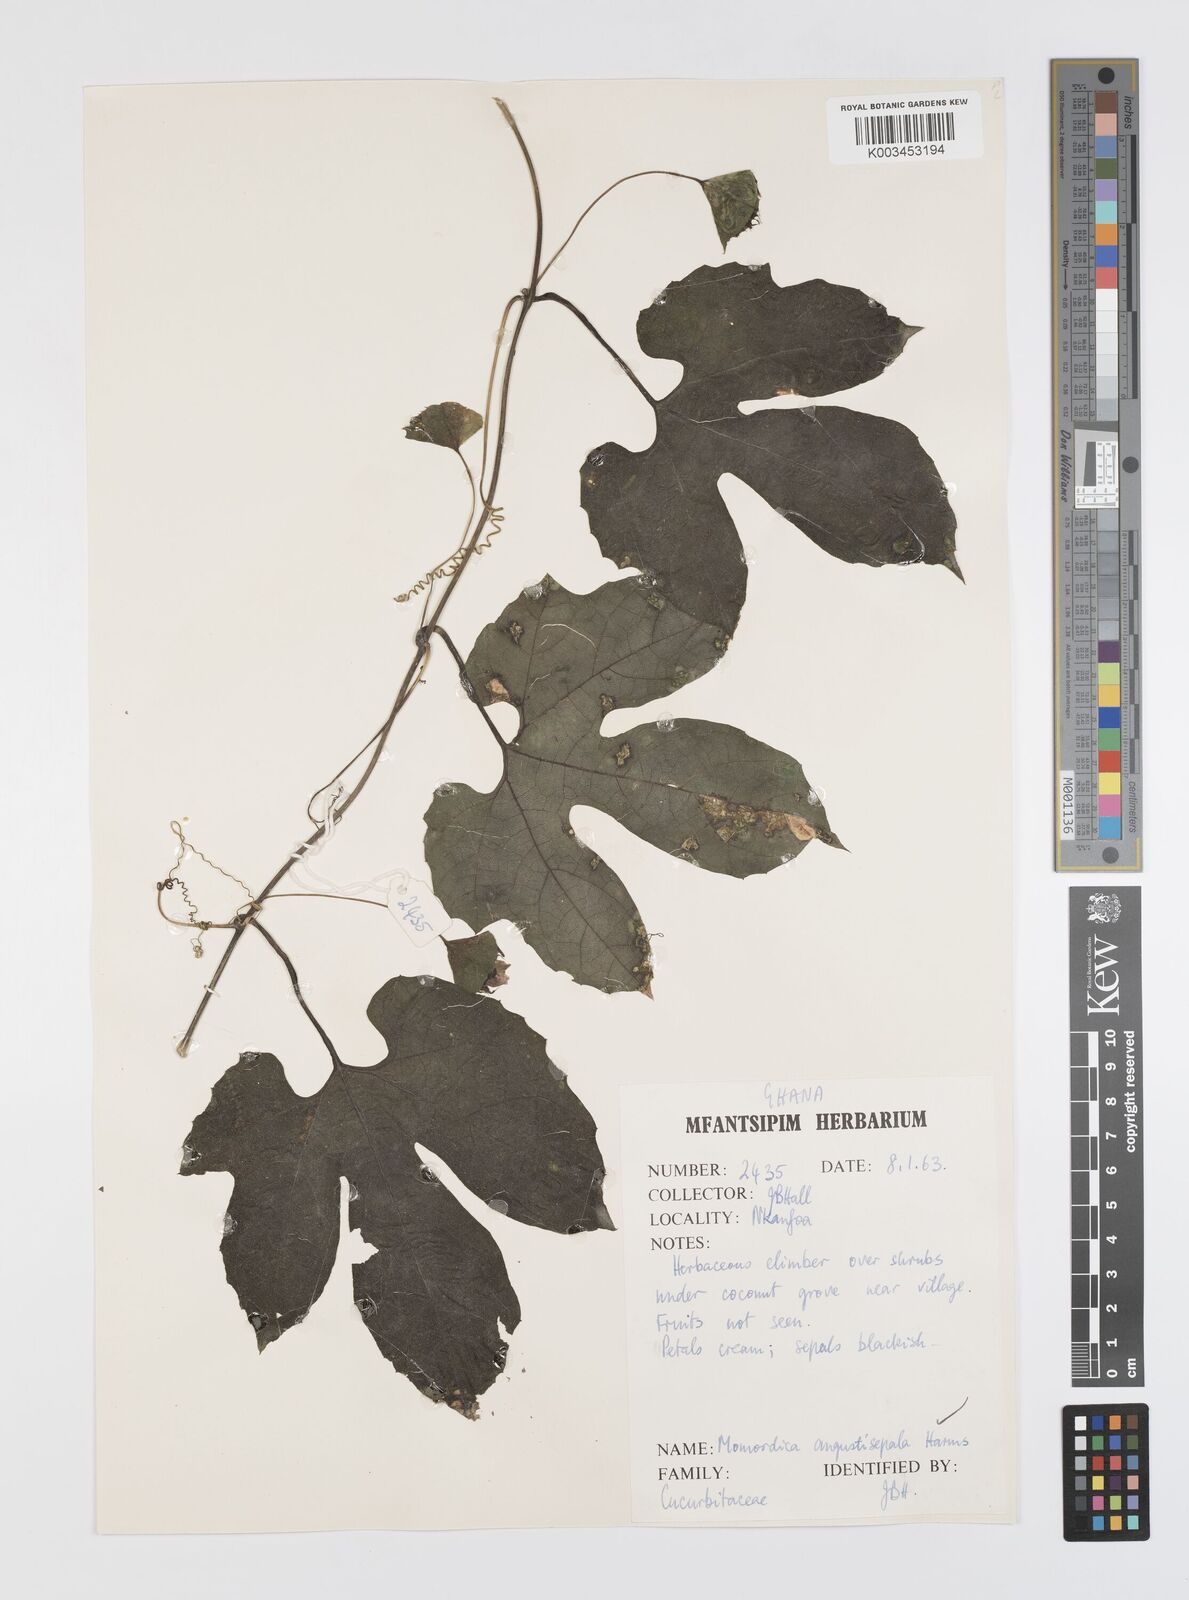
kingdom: Plantae
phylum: Tracheophyta
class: Magnoliopsida
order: Cucurbitales
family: Cucurbitaceae
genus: Momordica
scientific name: Momordica angustisepala
